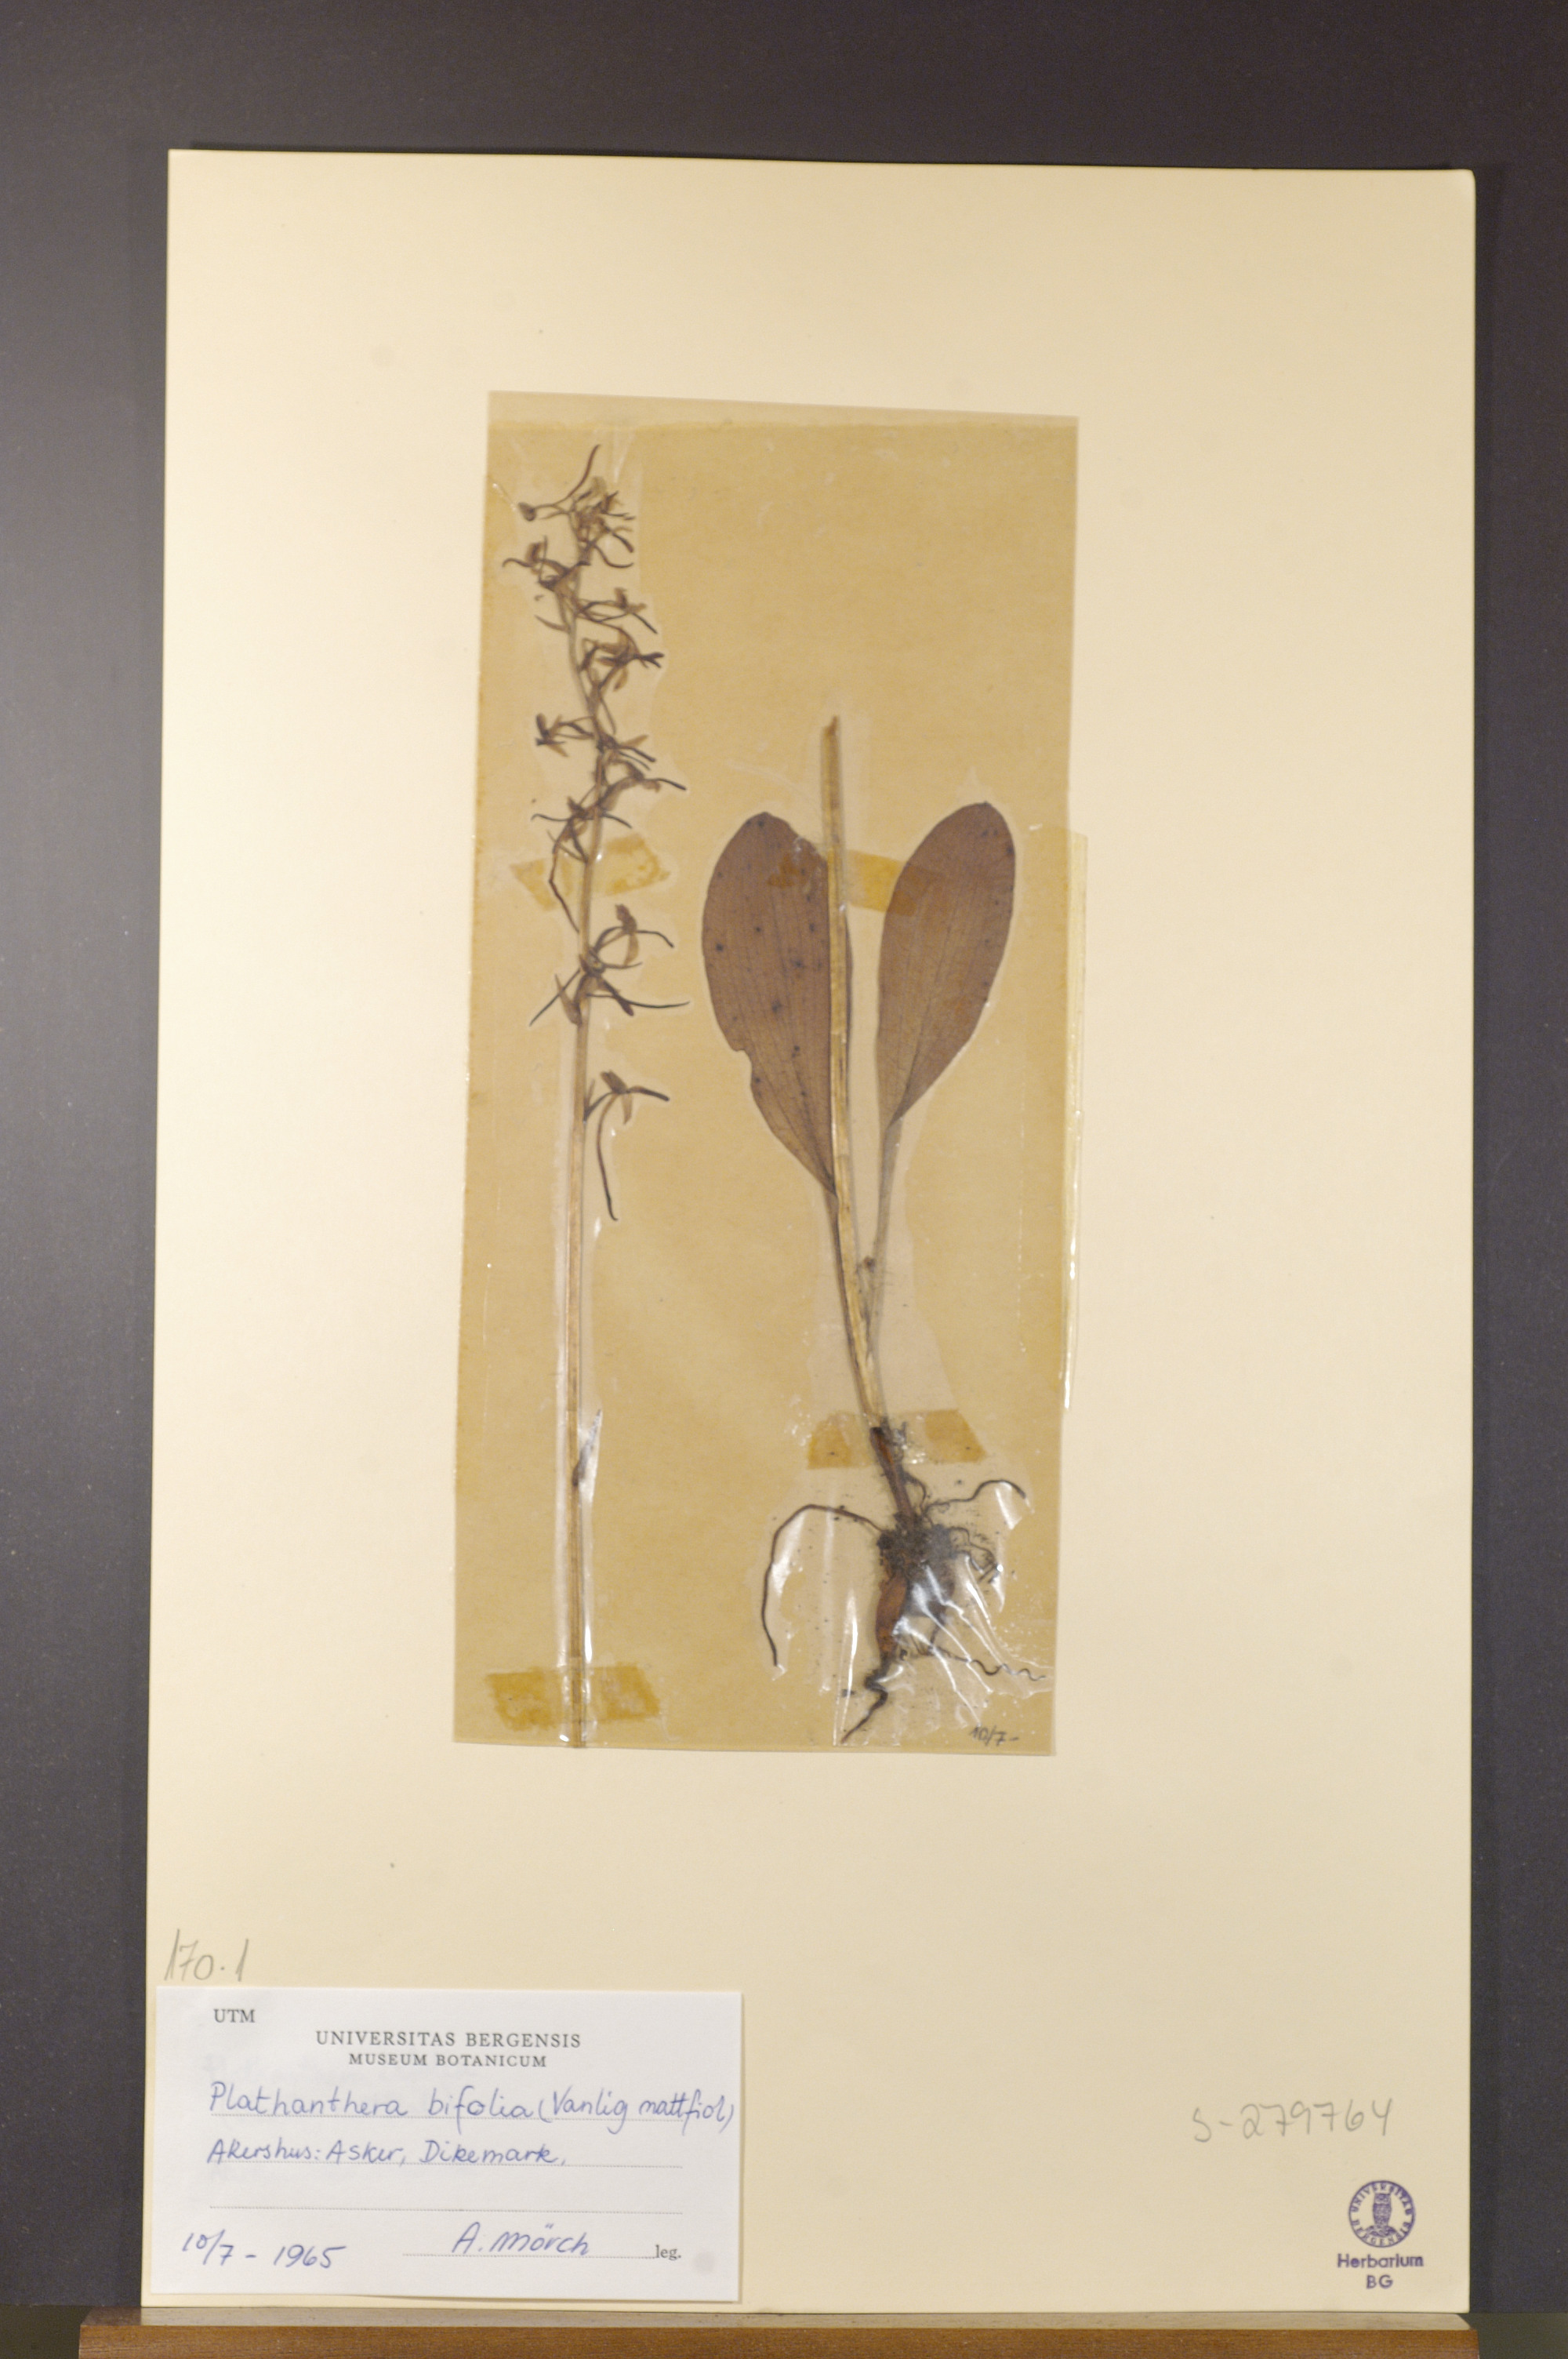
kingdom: Plantae
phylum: Tracheophyta
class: Liliopsida
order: Asparagales
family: Orchidaceae
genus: Platanthera
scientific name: Platanthera bifolia
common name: Lesser butterfly-orchid
